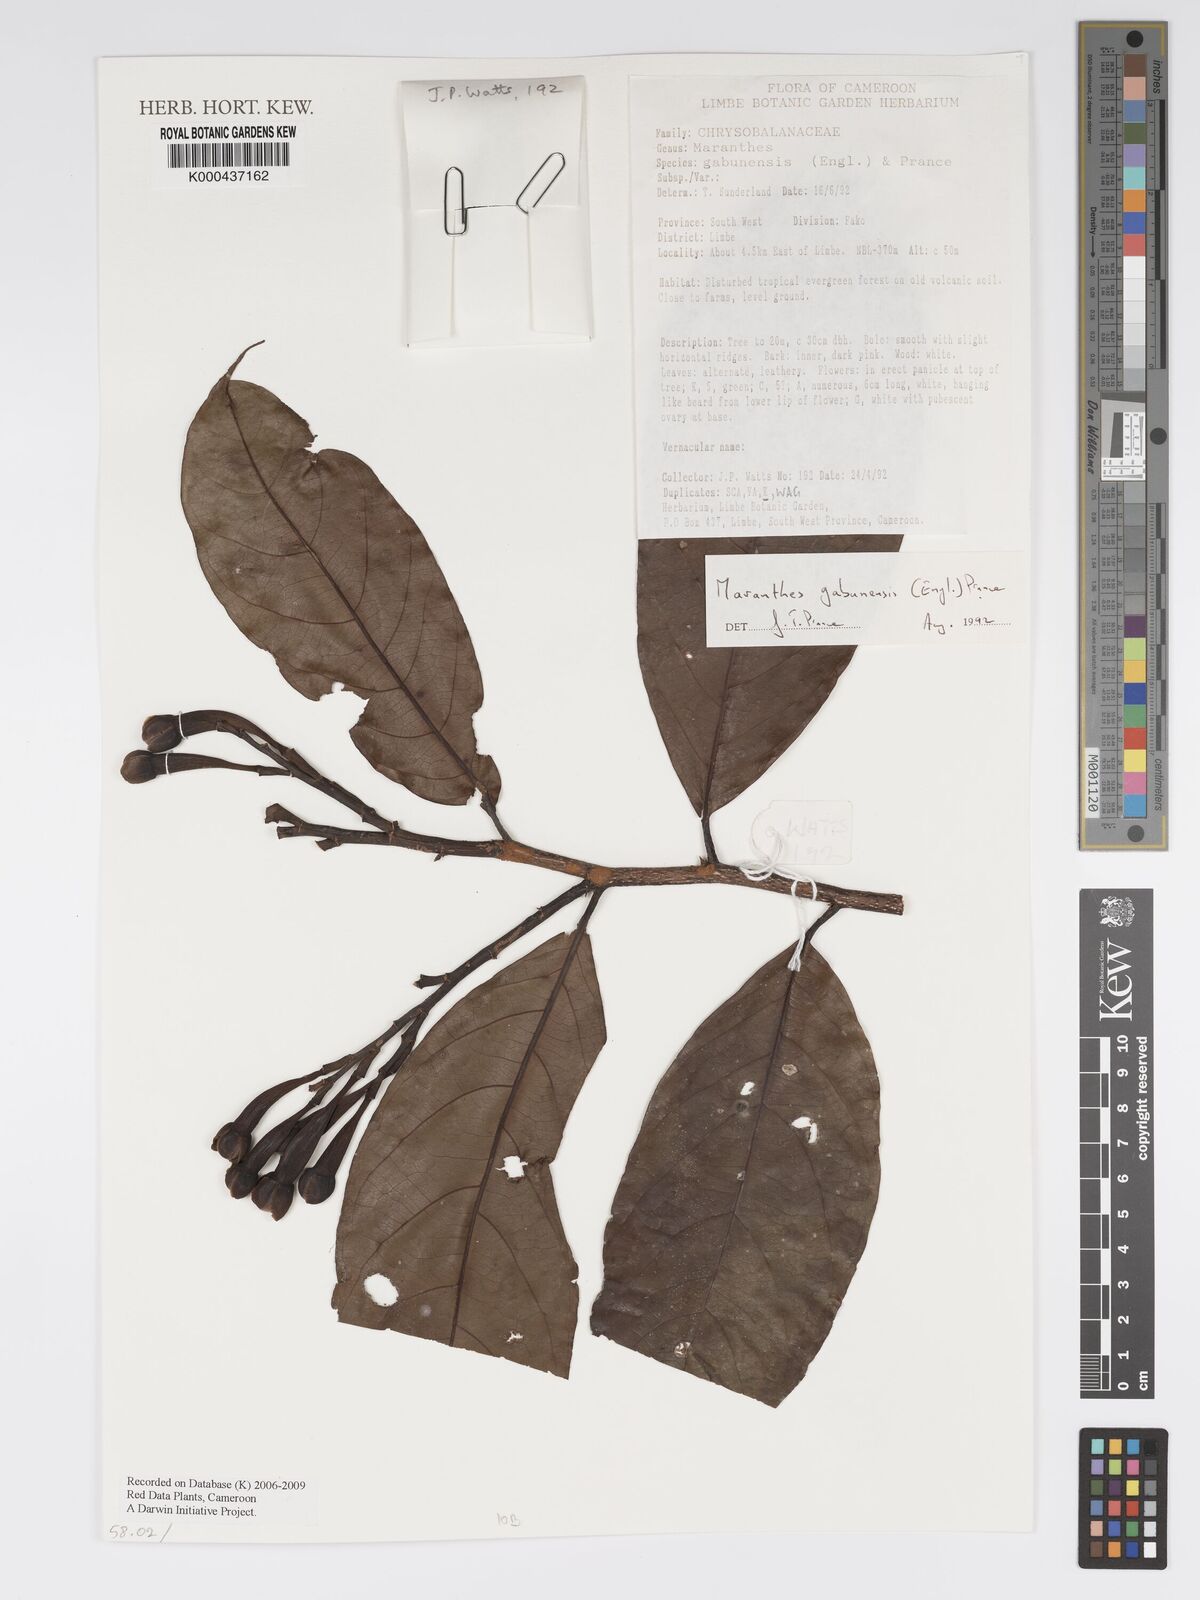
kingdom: Plantae
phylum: Tracheophyta
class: Magnoliopsida
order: Malpighiales
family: Chrysobalanaceae
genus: Maranthes
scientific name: Maranthes gabunensis
